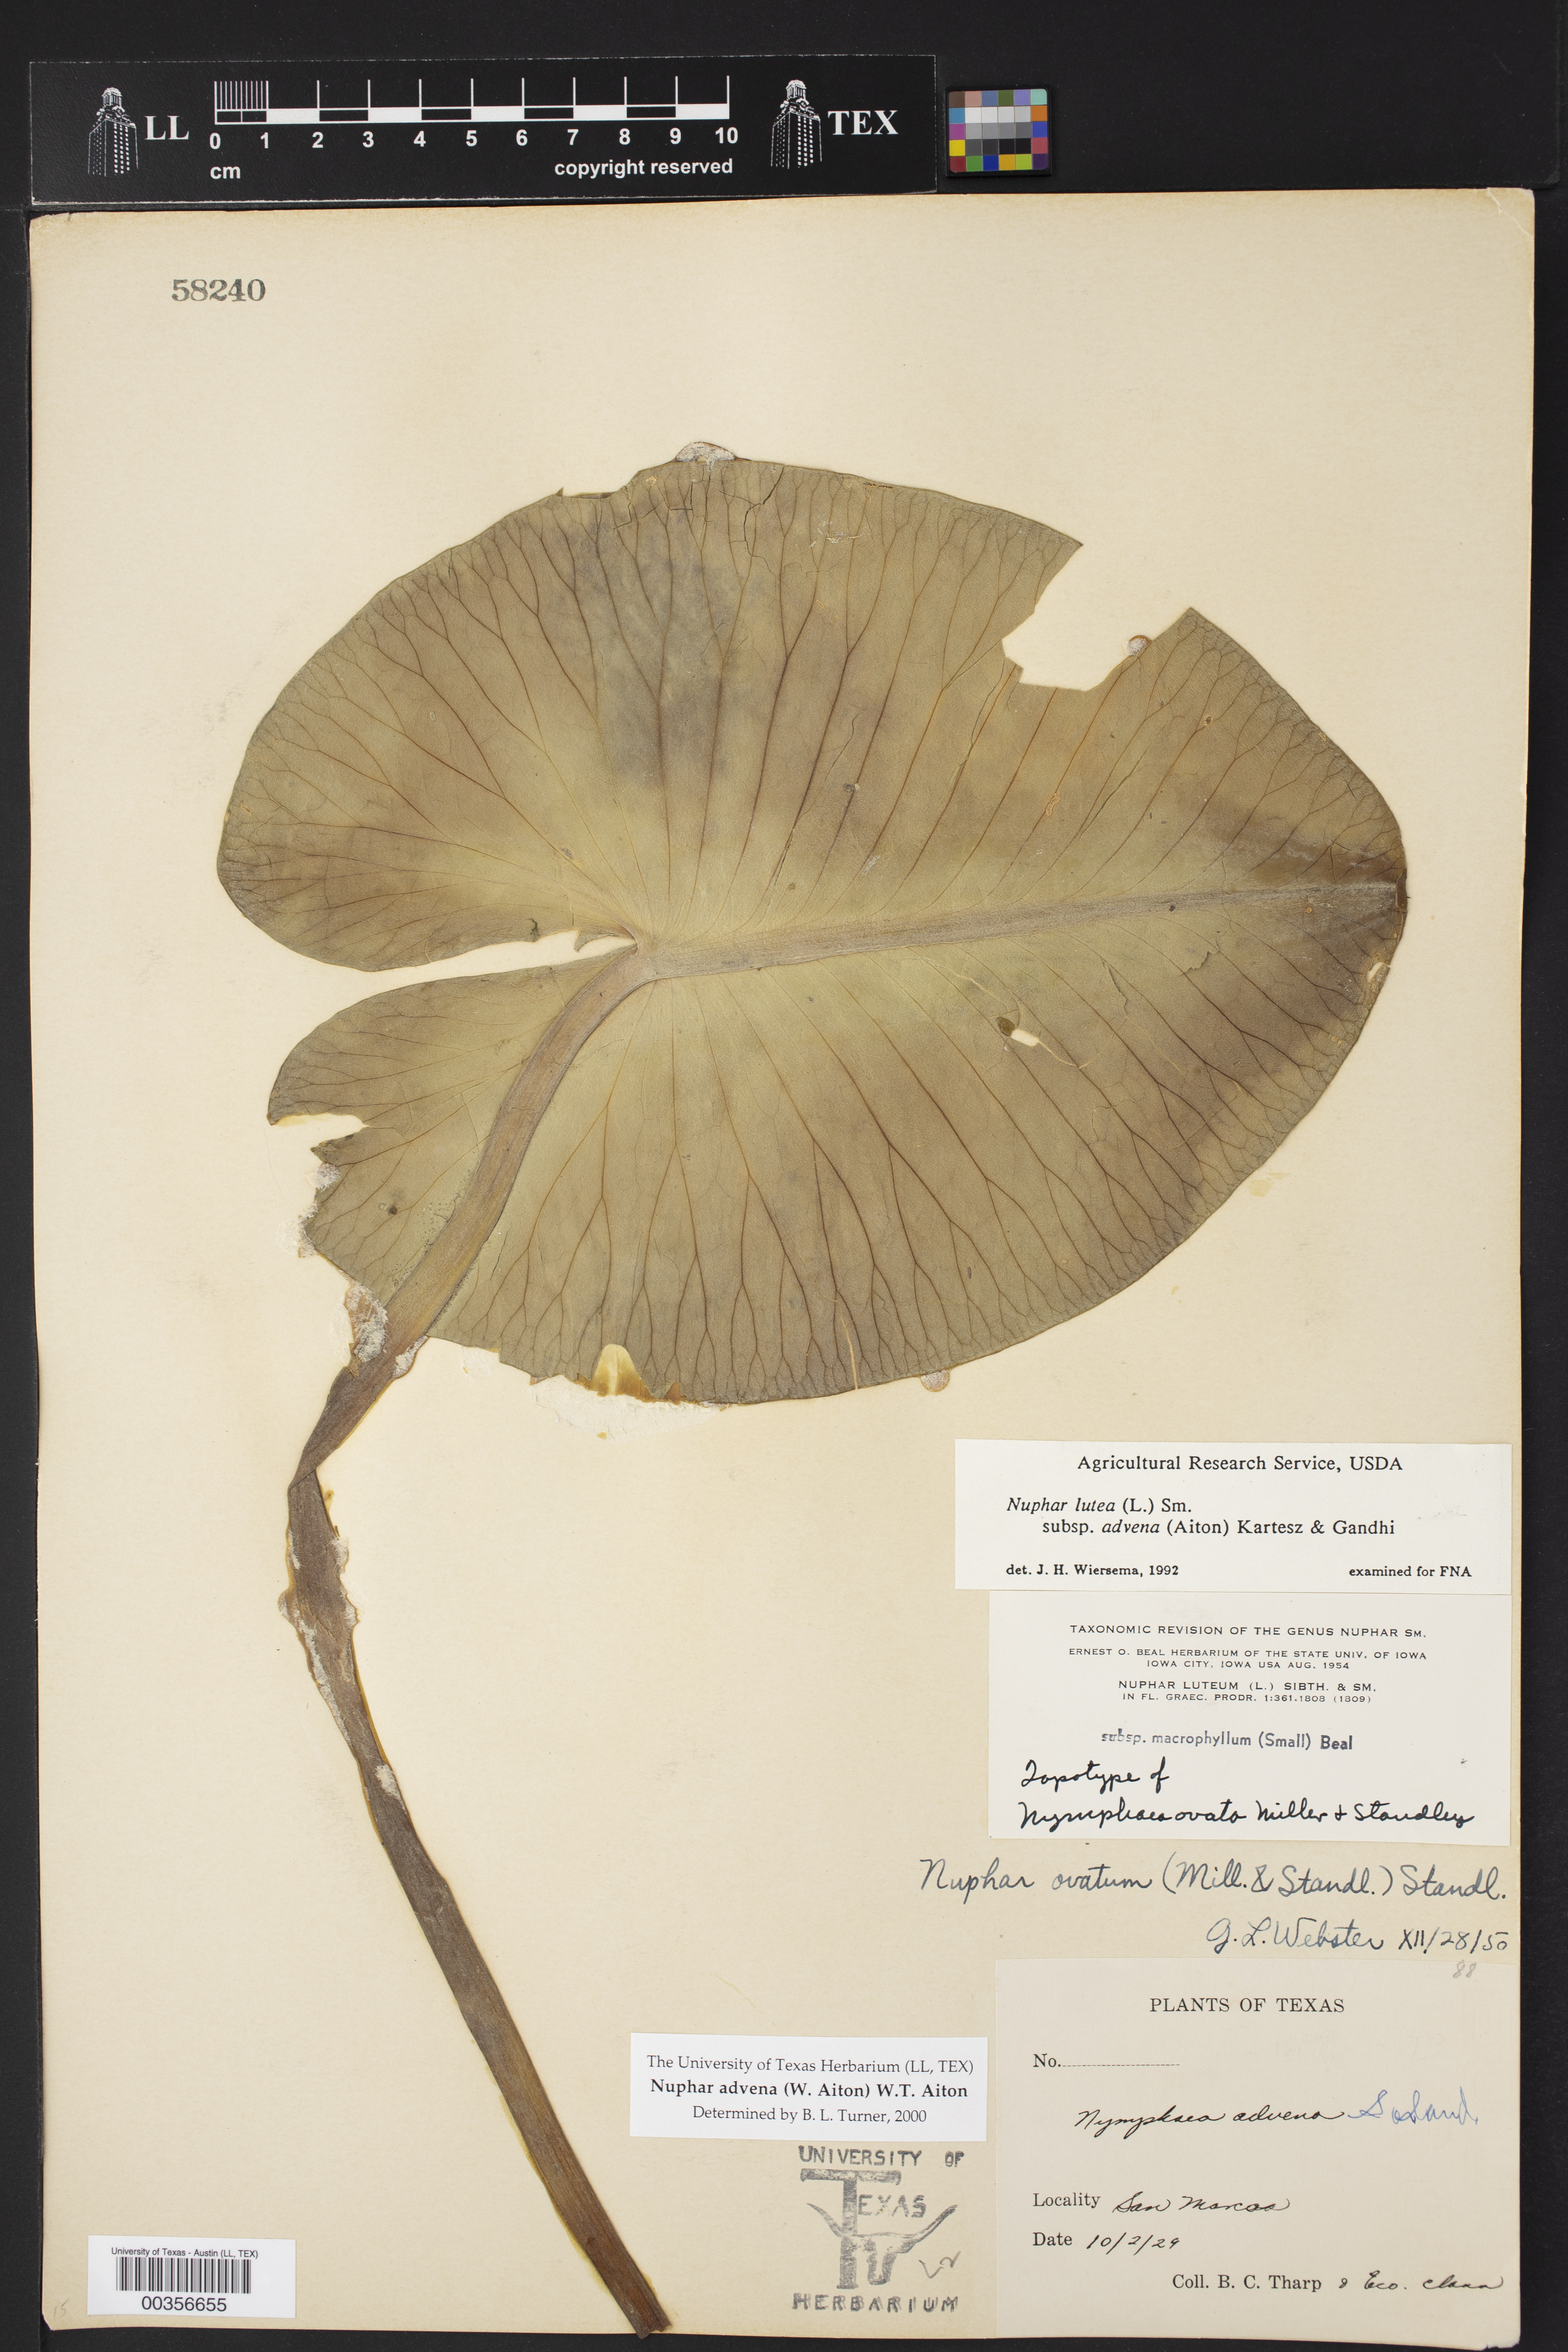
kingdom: Plantae
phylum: Tracheophyta
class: Magnoliopsida
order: Nymphaeales
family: Nymphaeaceae
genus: Nuphar
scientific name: Nuphar advena
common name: Spatter-dock
